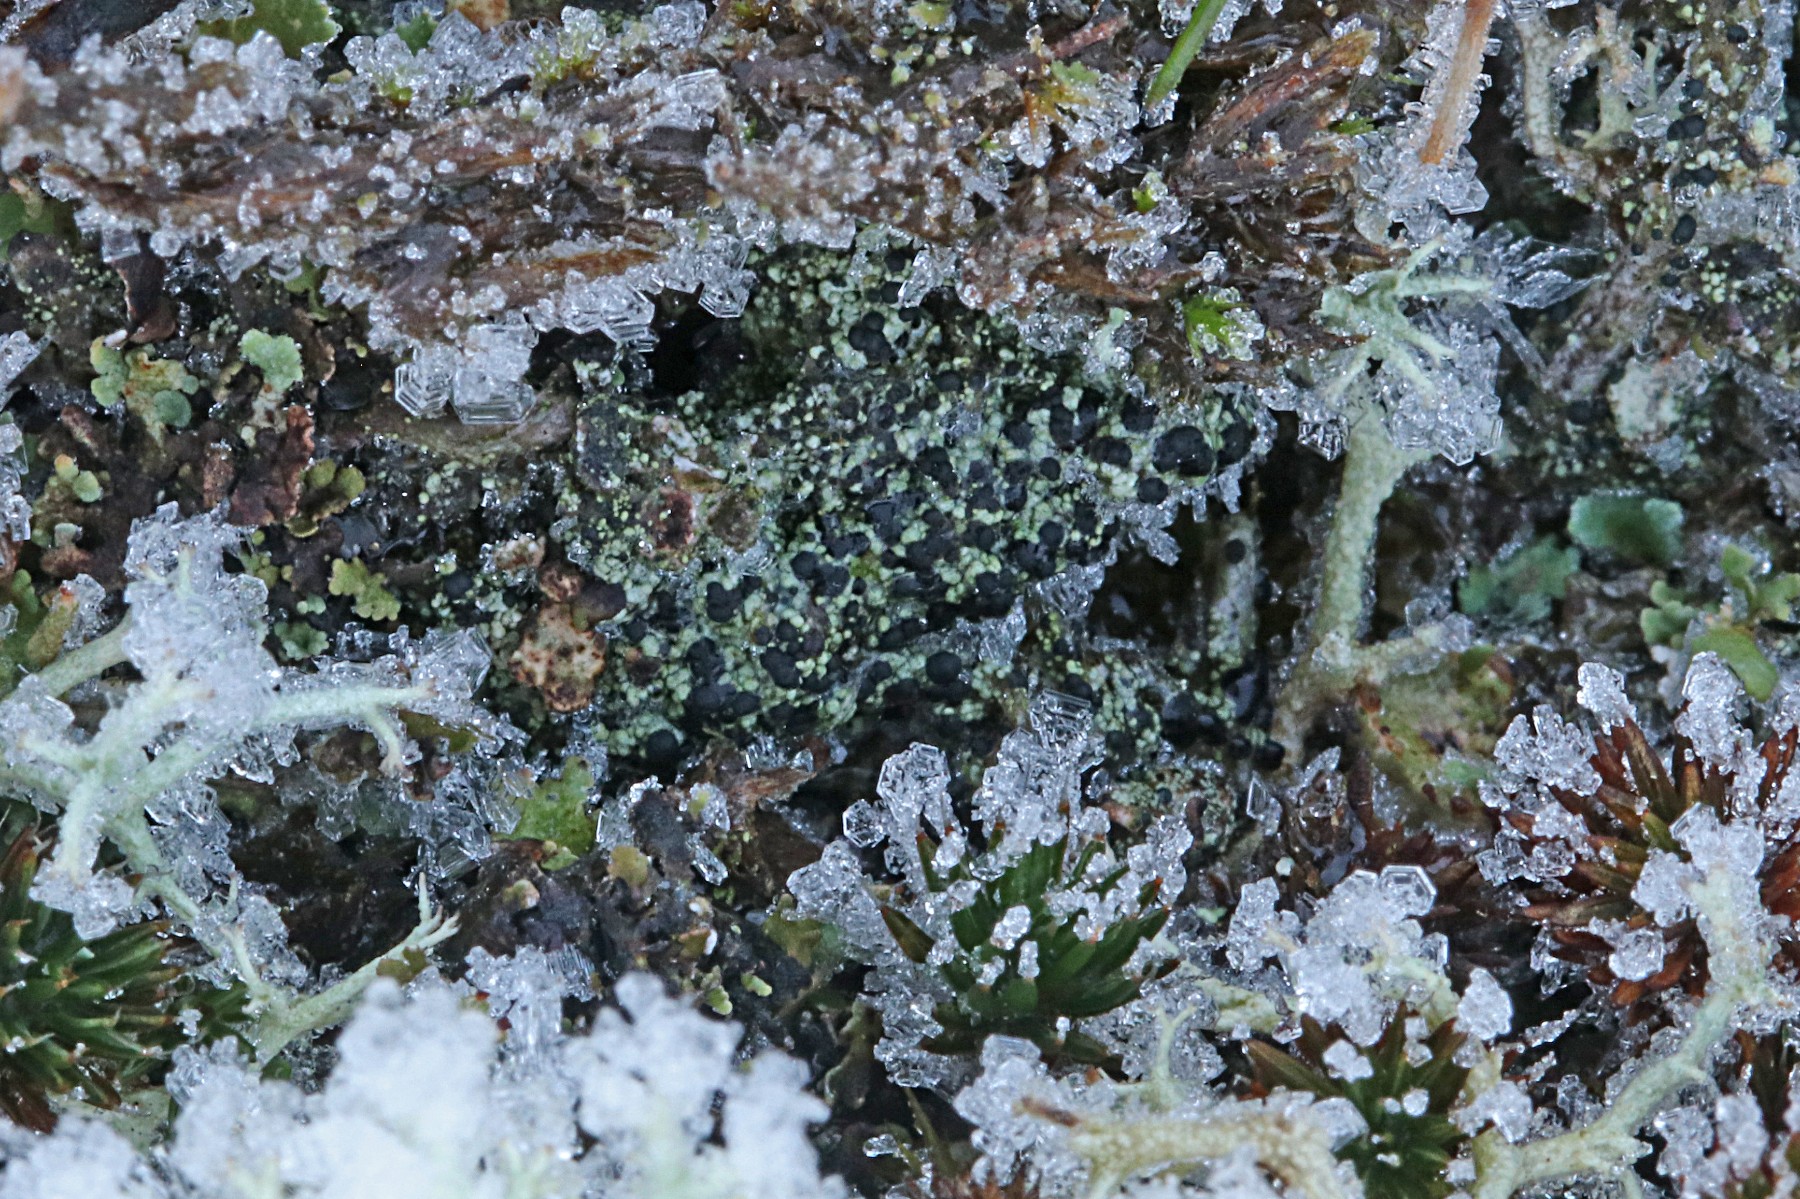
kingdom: Fungi
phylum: Ascomycota
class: Lecanoromycetes
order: Lecanorales
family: Byssolomataceae
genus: Micarea
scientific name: Micarea lignaria
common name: tørve-knaplav
